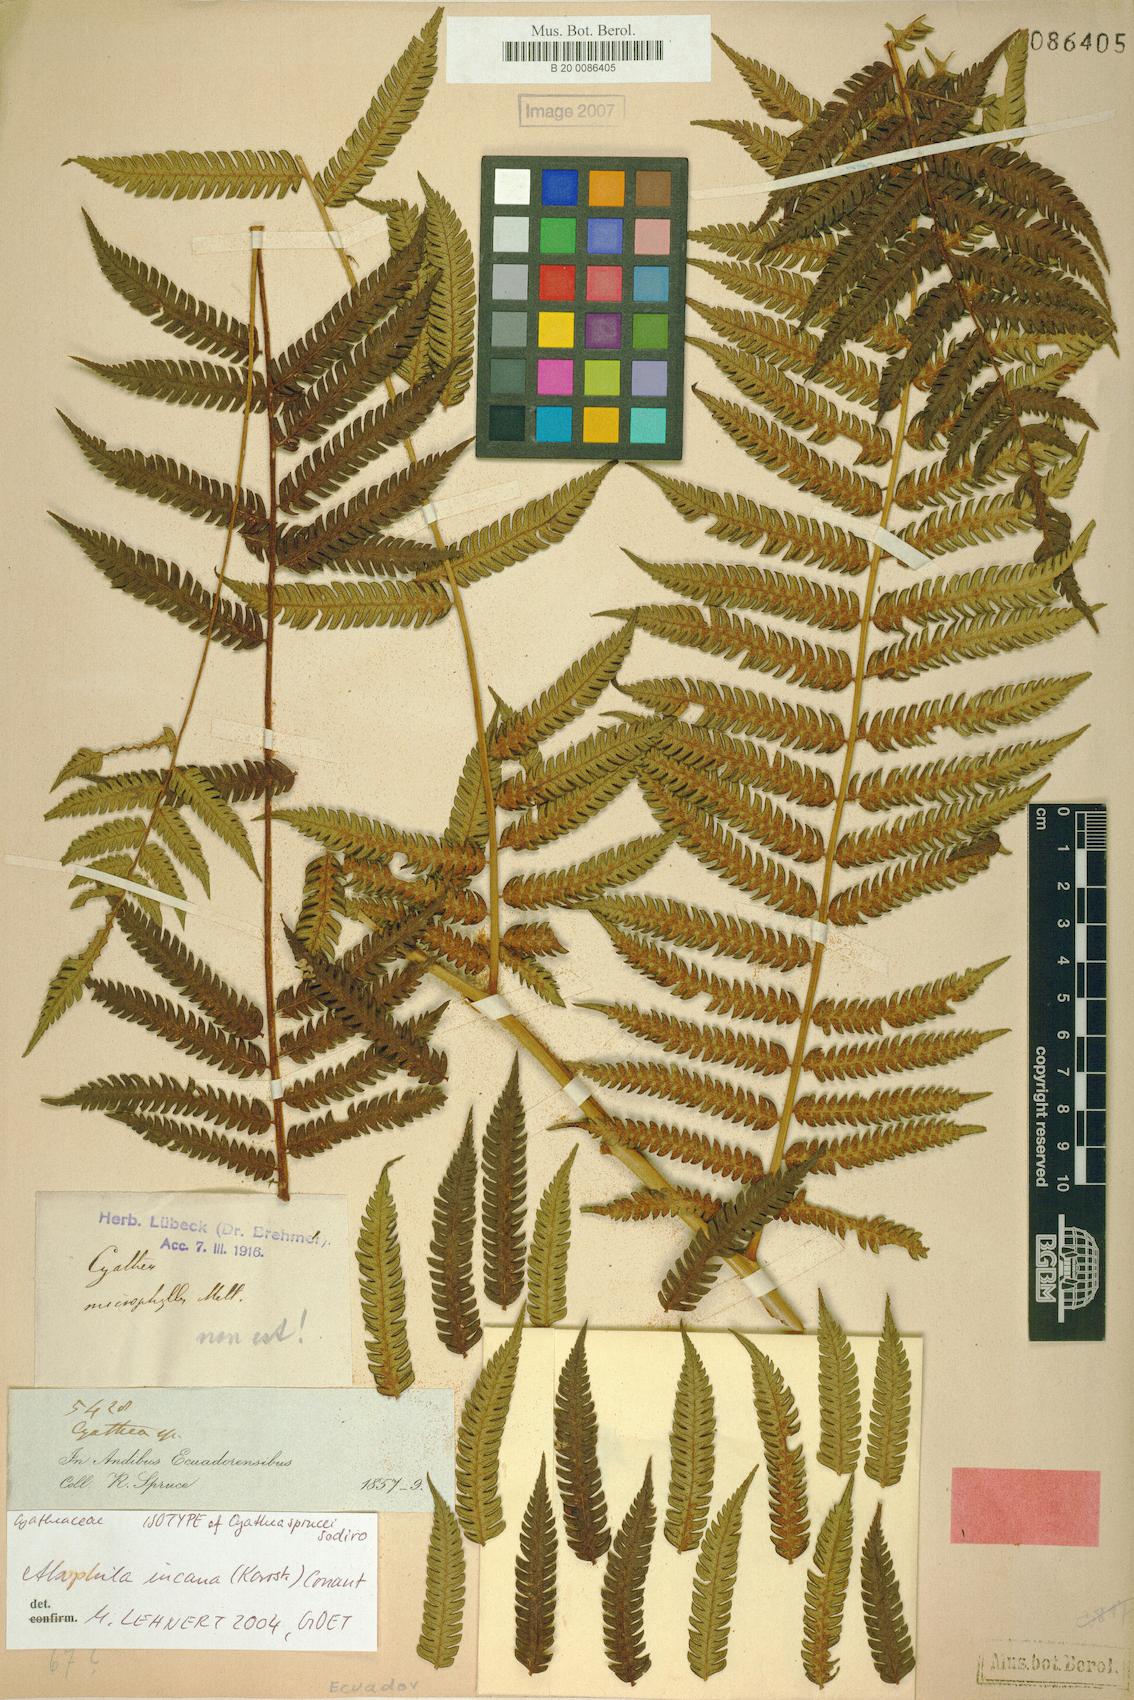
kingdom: Plantae
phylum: Tracheophyta
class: Polypodiopsida
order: Cyatheales
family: Cyatheaceae
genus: Alsophila
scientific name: Alsophila incana
